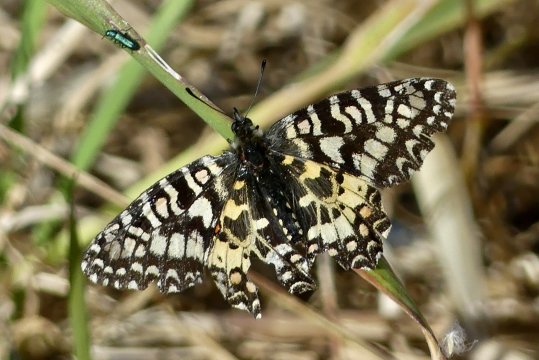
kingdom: Animalia
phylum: Arthropoda
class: Insecta
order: Lepidoptera
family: Papilionidae
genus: Zerynthia
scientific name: Zerynthia rumina
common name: Spanish Festoon
